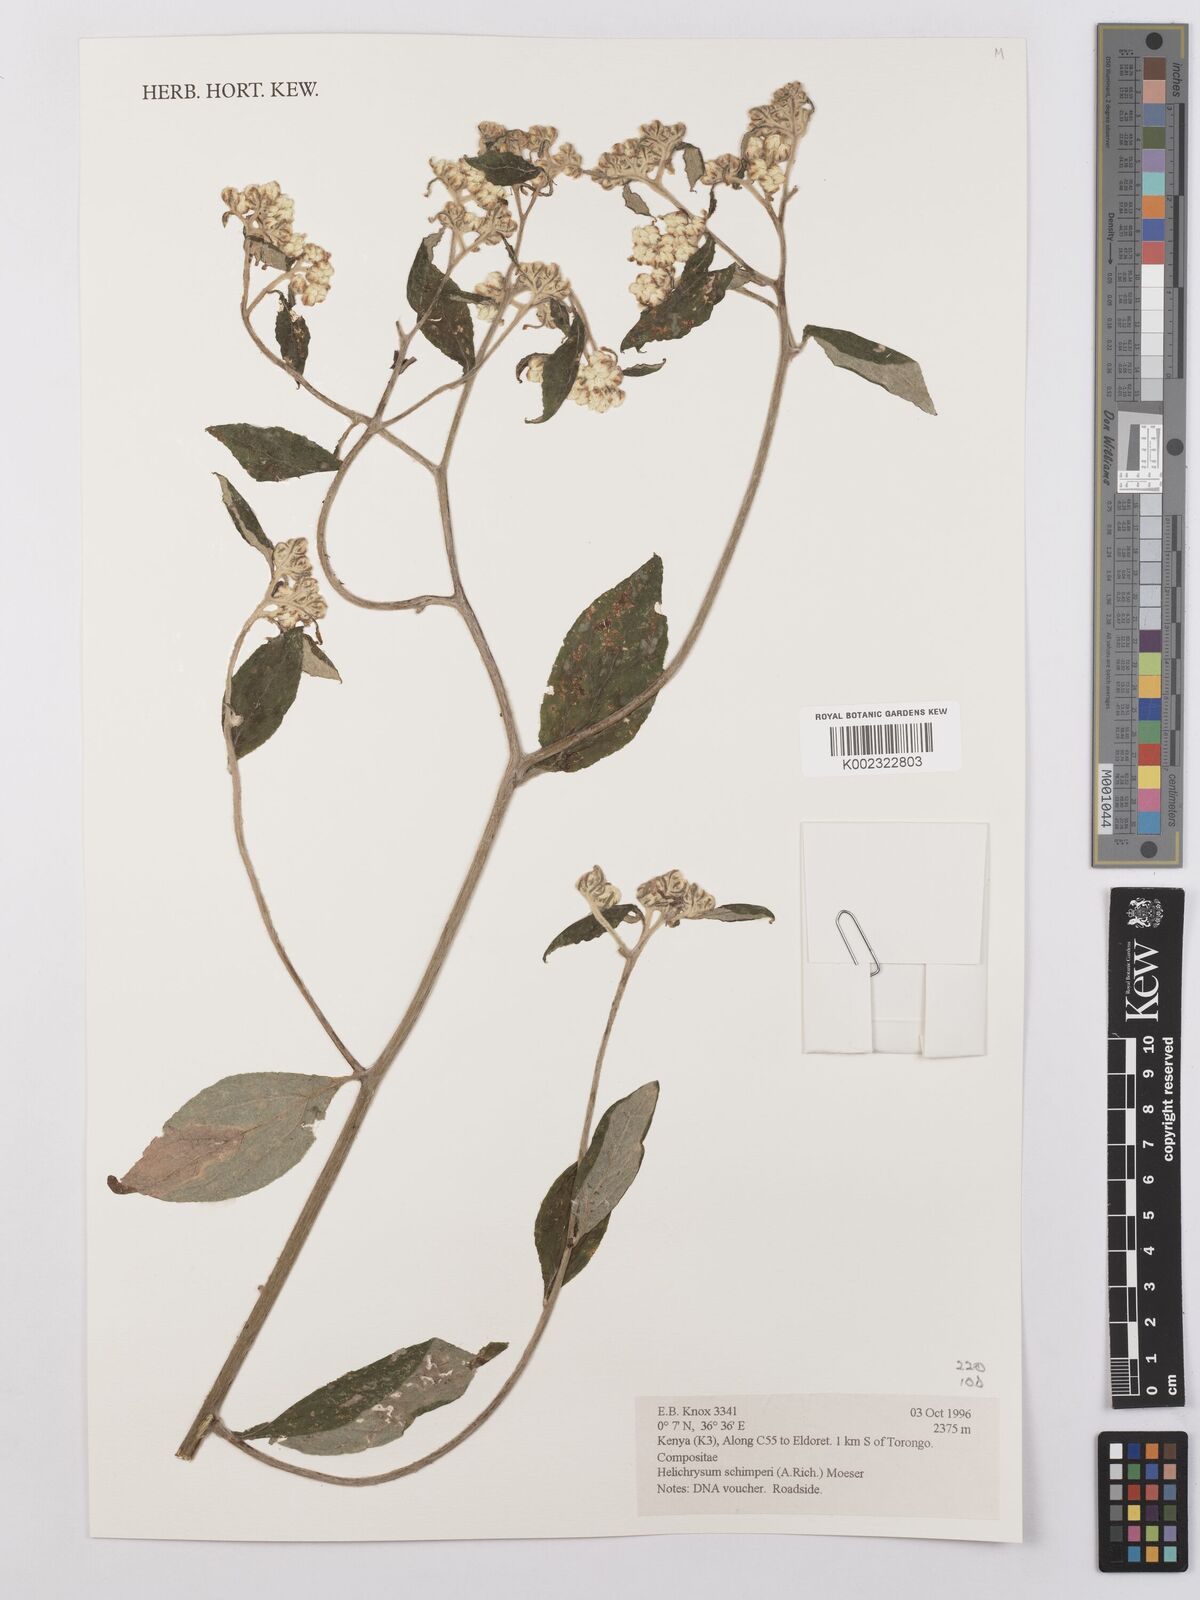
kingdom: Plantae
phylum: Tracheophyta
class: Magnoliopsida
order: Asterales
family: Asteraceae
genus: Helichrysum
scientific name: Helichrysum schimperi
